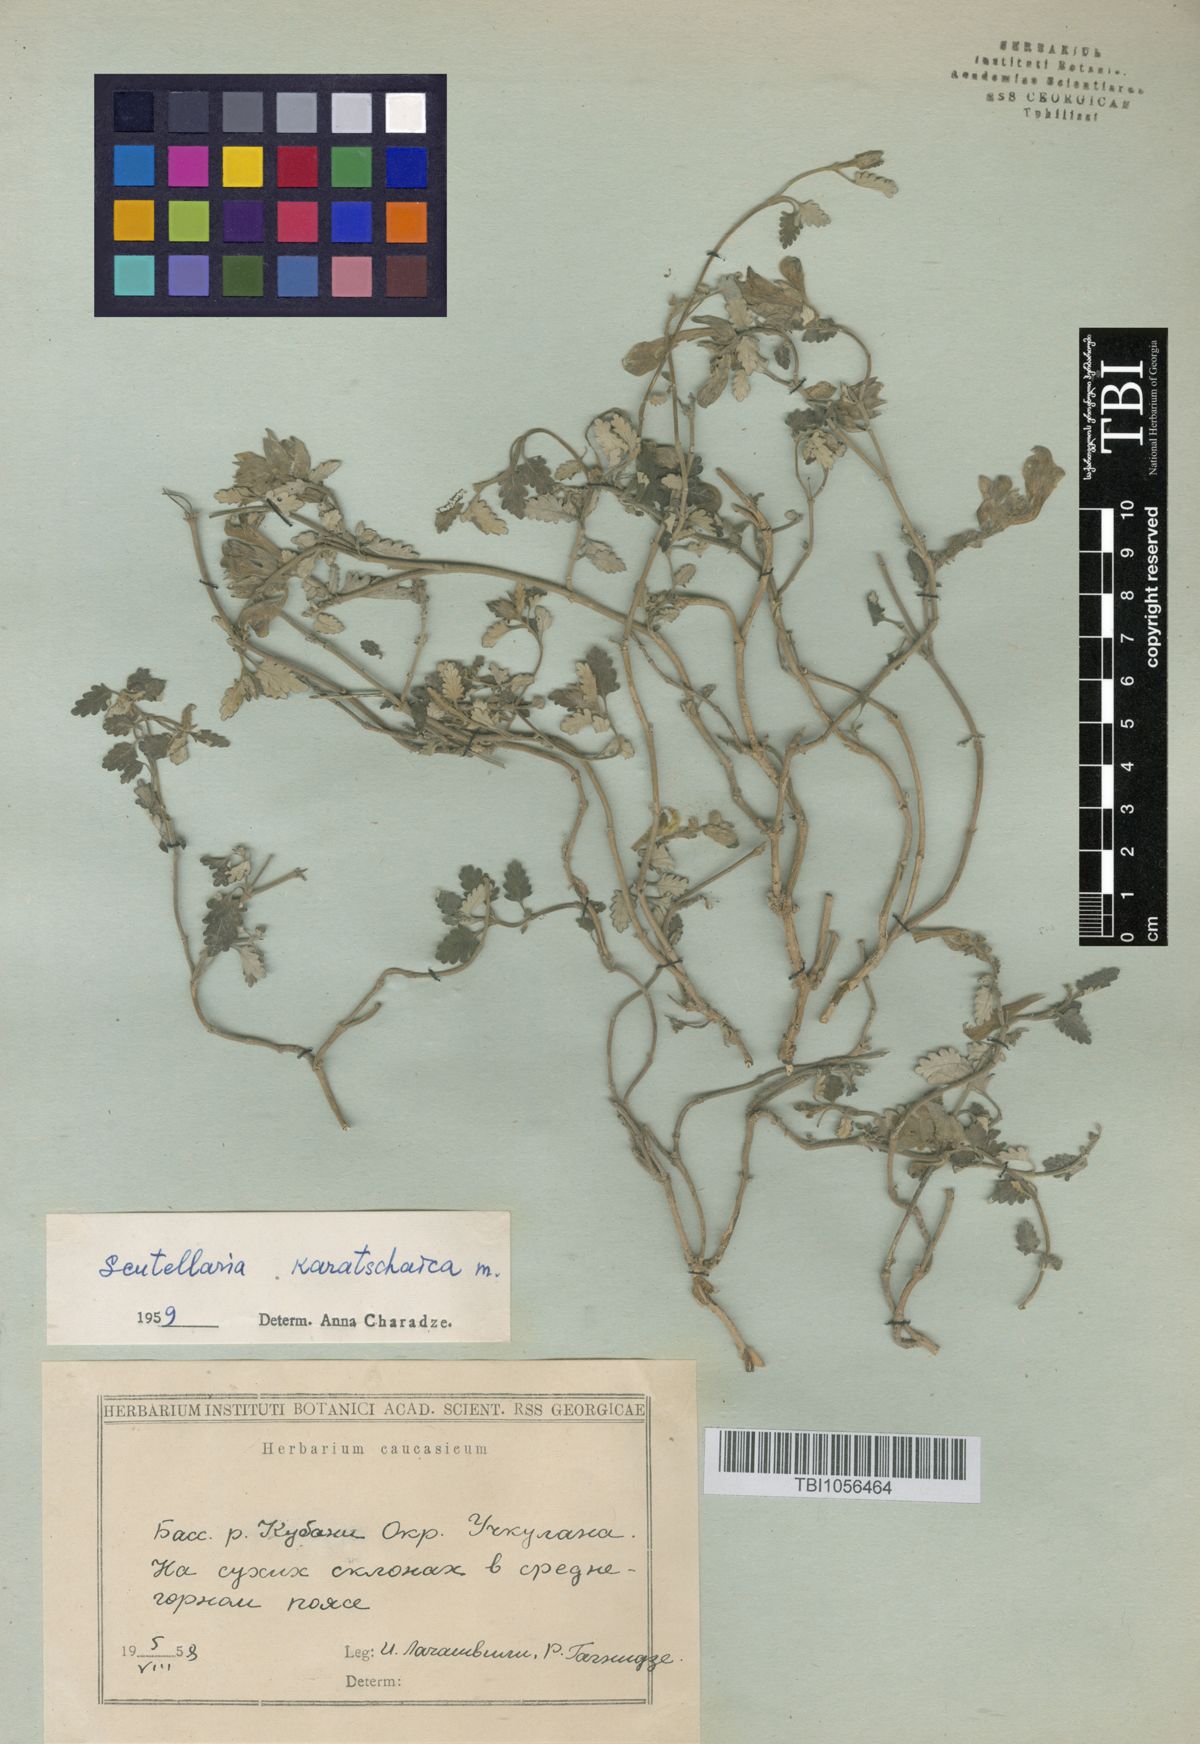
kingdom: Plantae
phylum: Tracheophyta
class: Magnoliopsida
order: Lamiales
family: Lamiaceae
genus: Scutellaria
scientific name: Scutellaria orientalis
